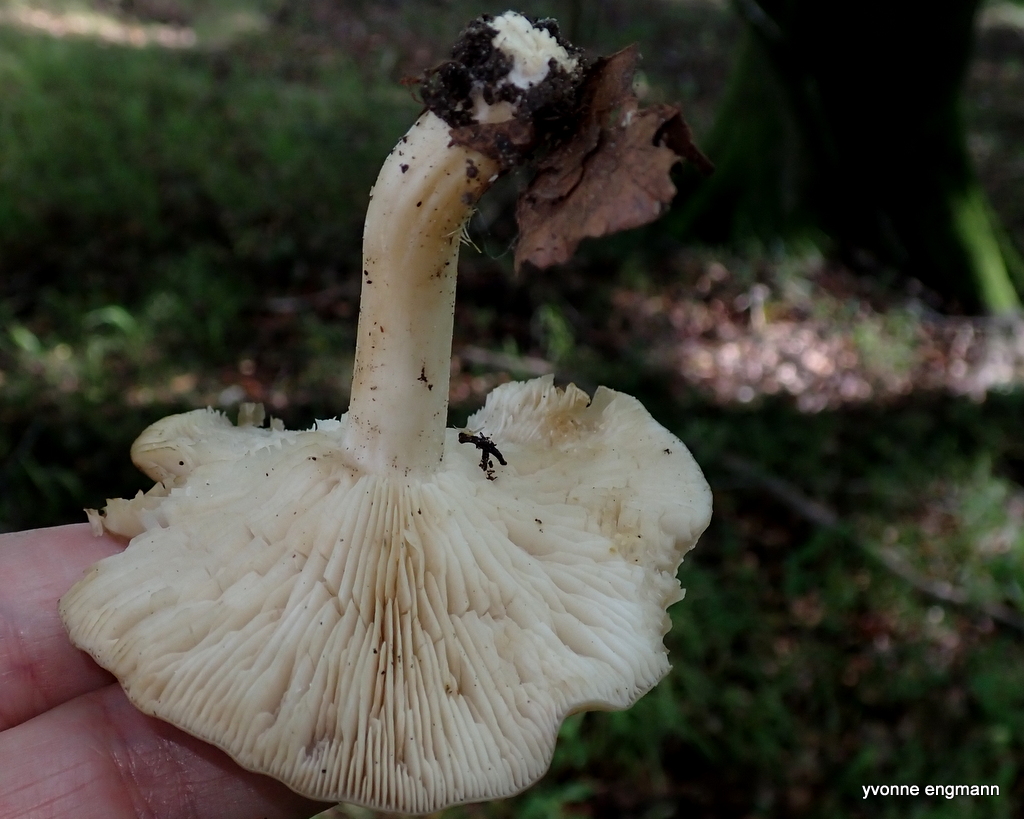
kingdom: Fungi
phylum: Basidiomycota
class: Agaricomycetes
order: Agaricales
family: Lyophyllaceae
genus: Lyophyllum
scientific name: Lyophyllum
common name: gråblad
